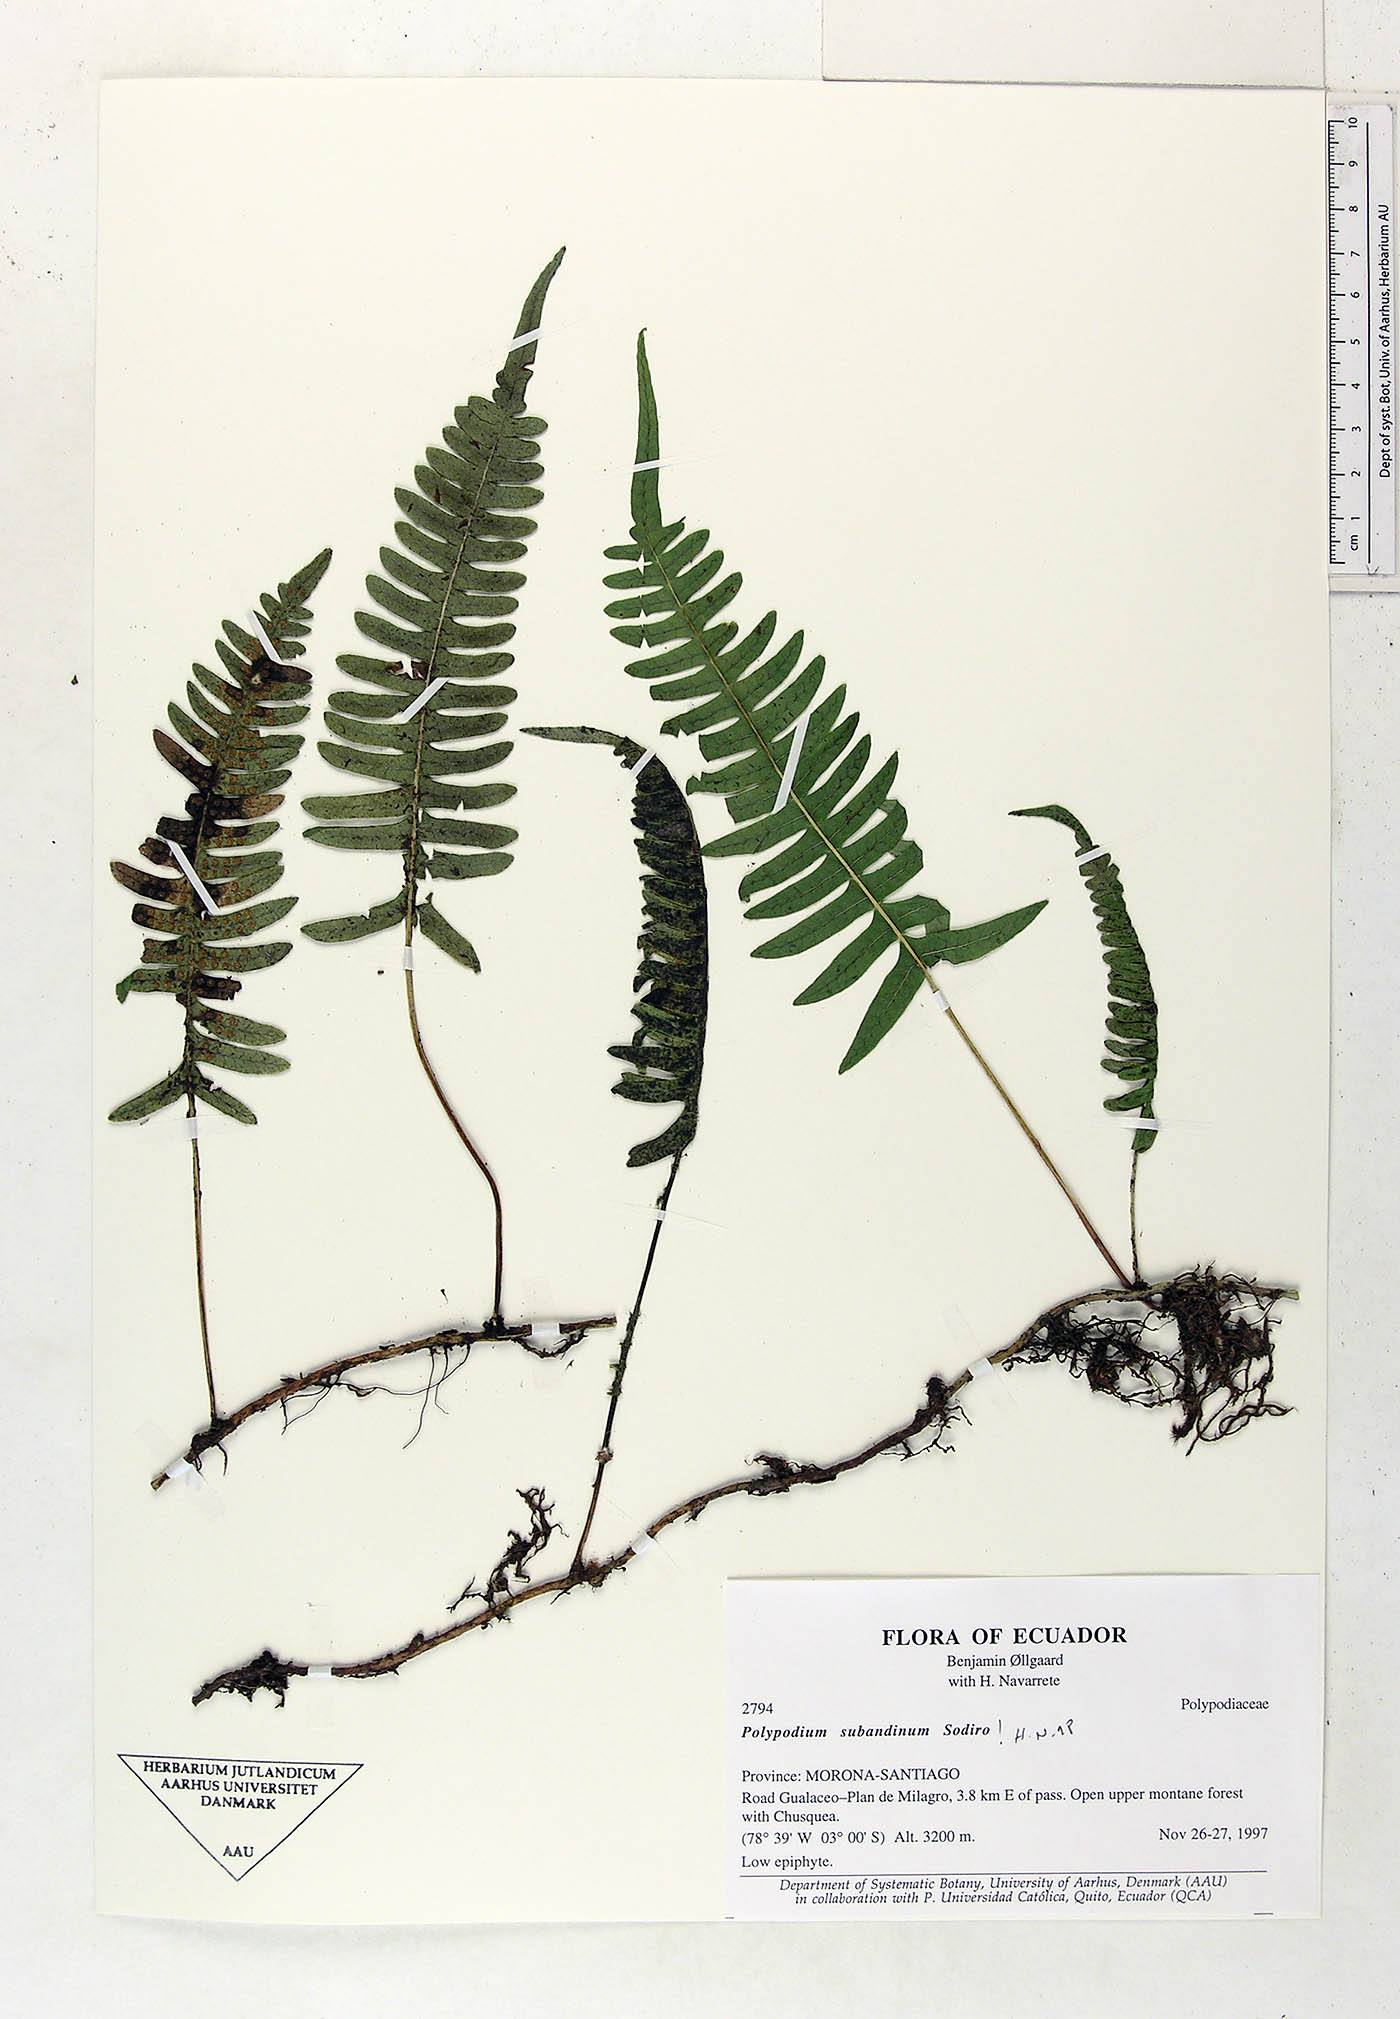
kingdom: Plantae
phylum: Tracheophyta
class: Polypodiopsida
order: Polypodiales
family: Polypodiaceae
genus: Serpocaulon
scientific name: Serpocaulon subandinum
